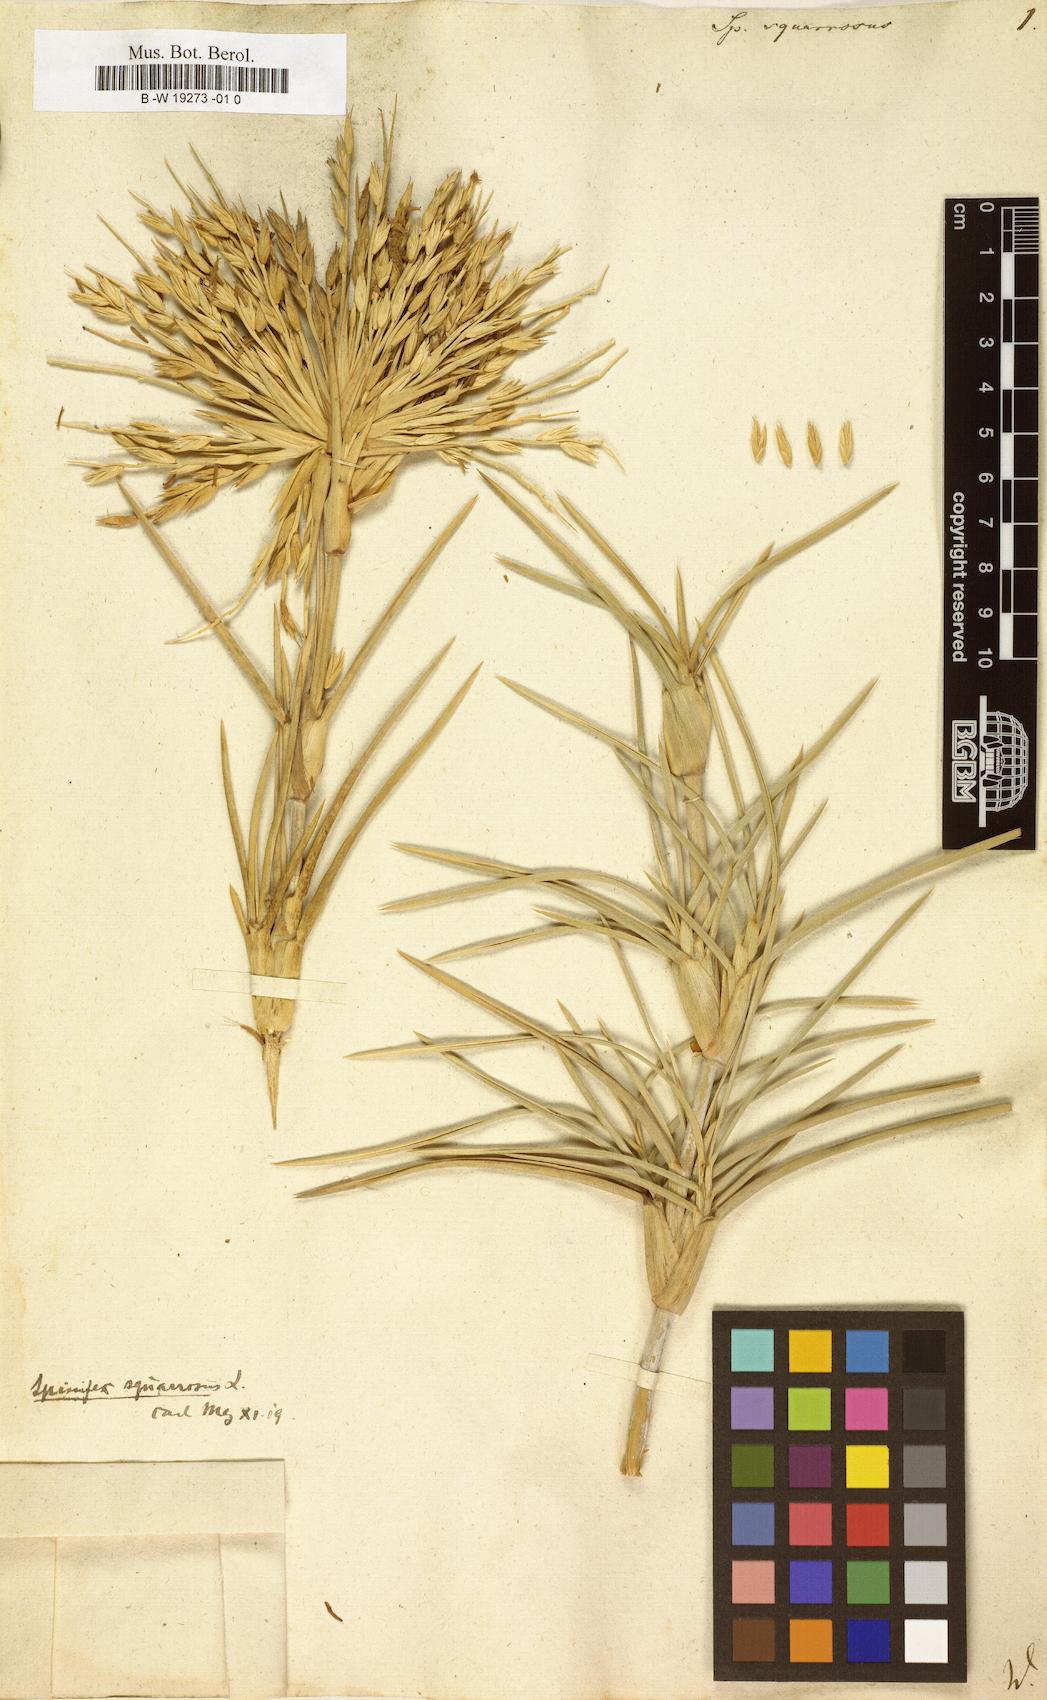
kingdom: Plantae
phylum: Tracheophyta
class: Liliopsida
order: Poales
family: Poaceae
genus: Spinifex
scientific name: Spinifex littoreus
